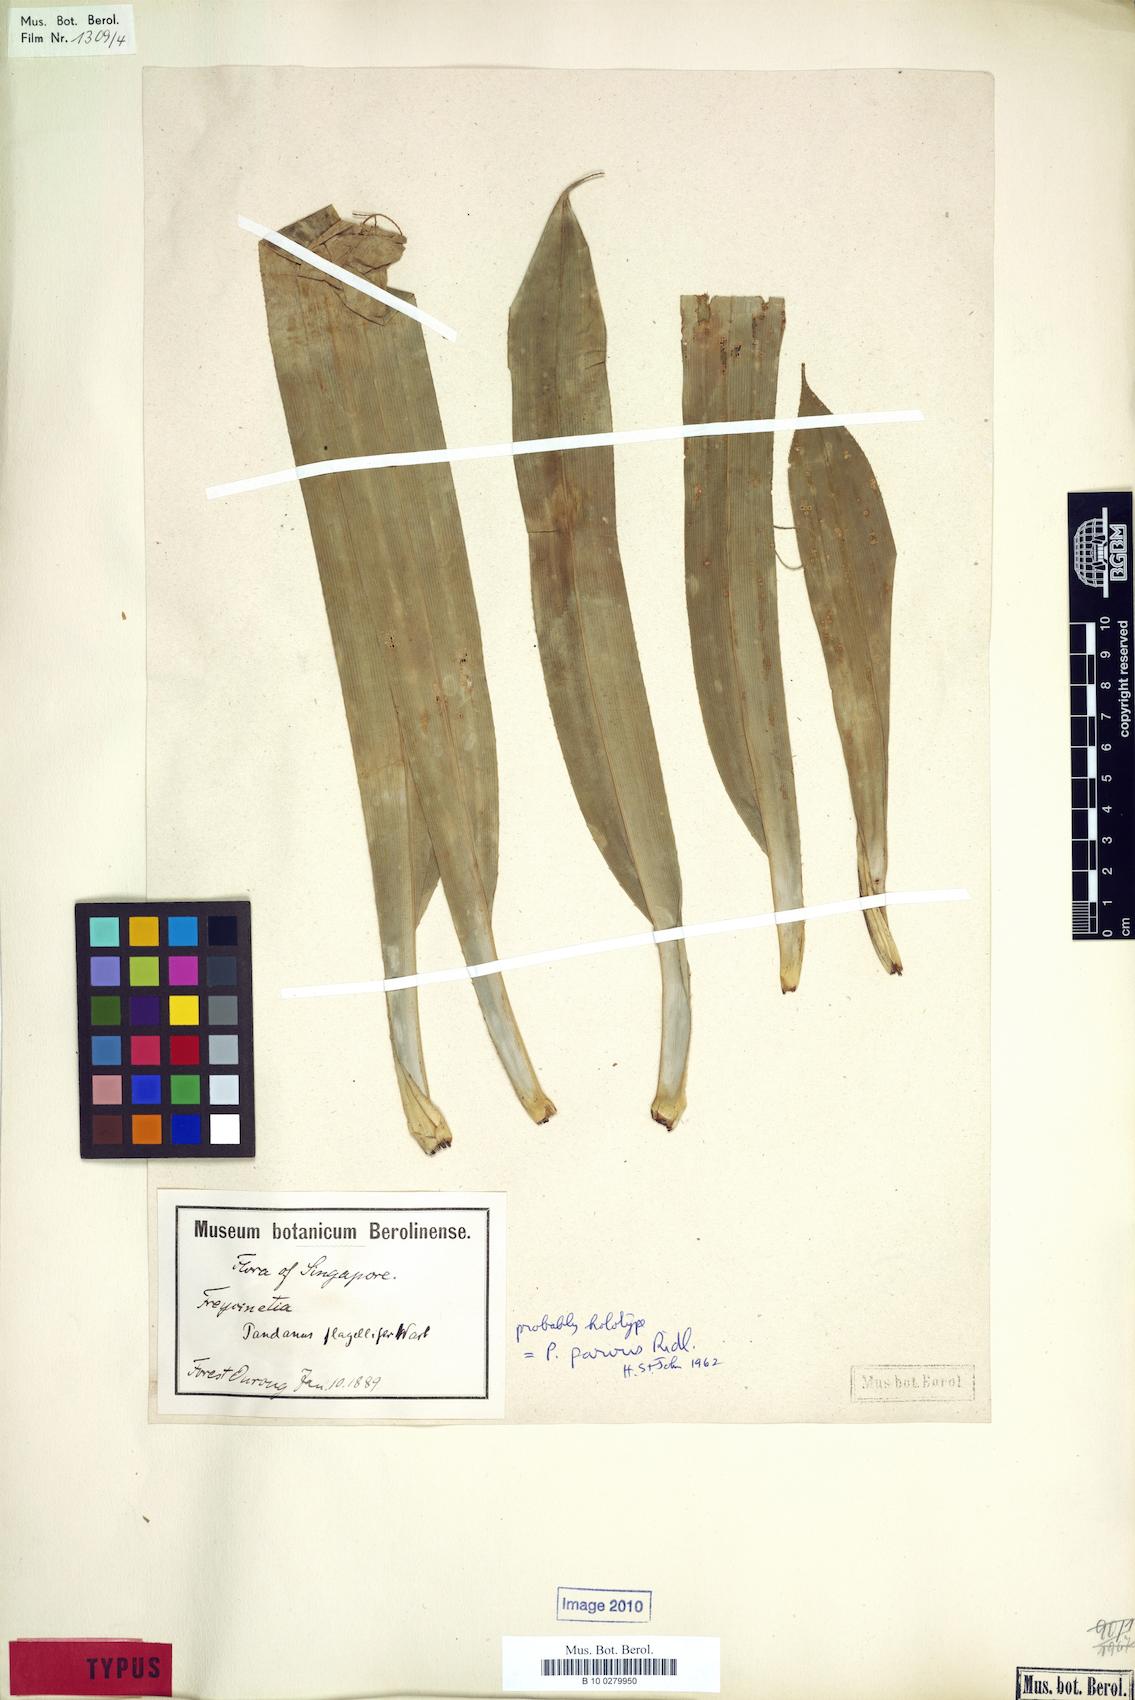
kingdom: Plantae
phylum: Tracheophyta
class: Liliopsida
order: Pandanales
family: Pandanaceae
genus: Benstonea
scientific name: Benstonea parva
